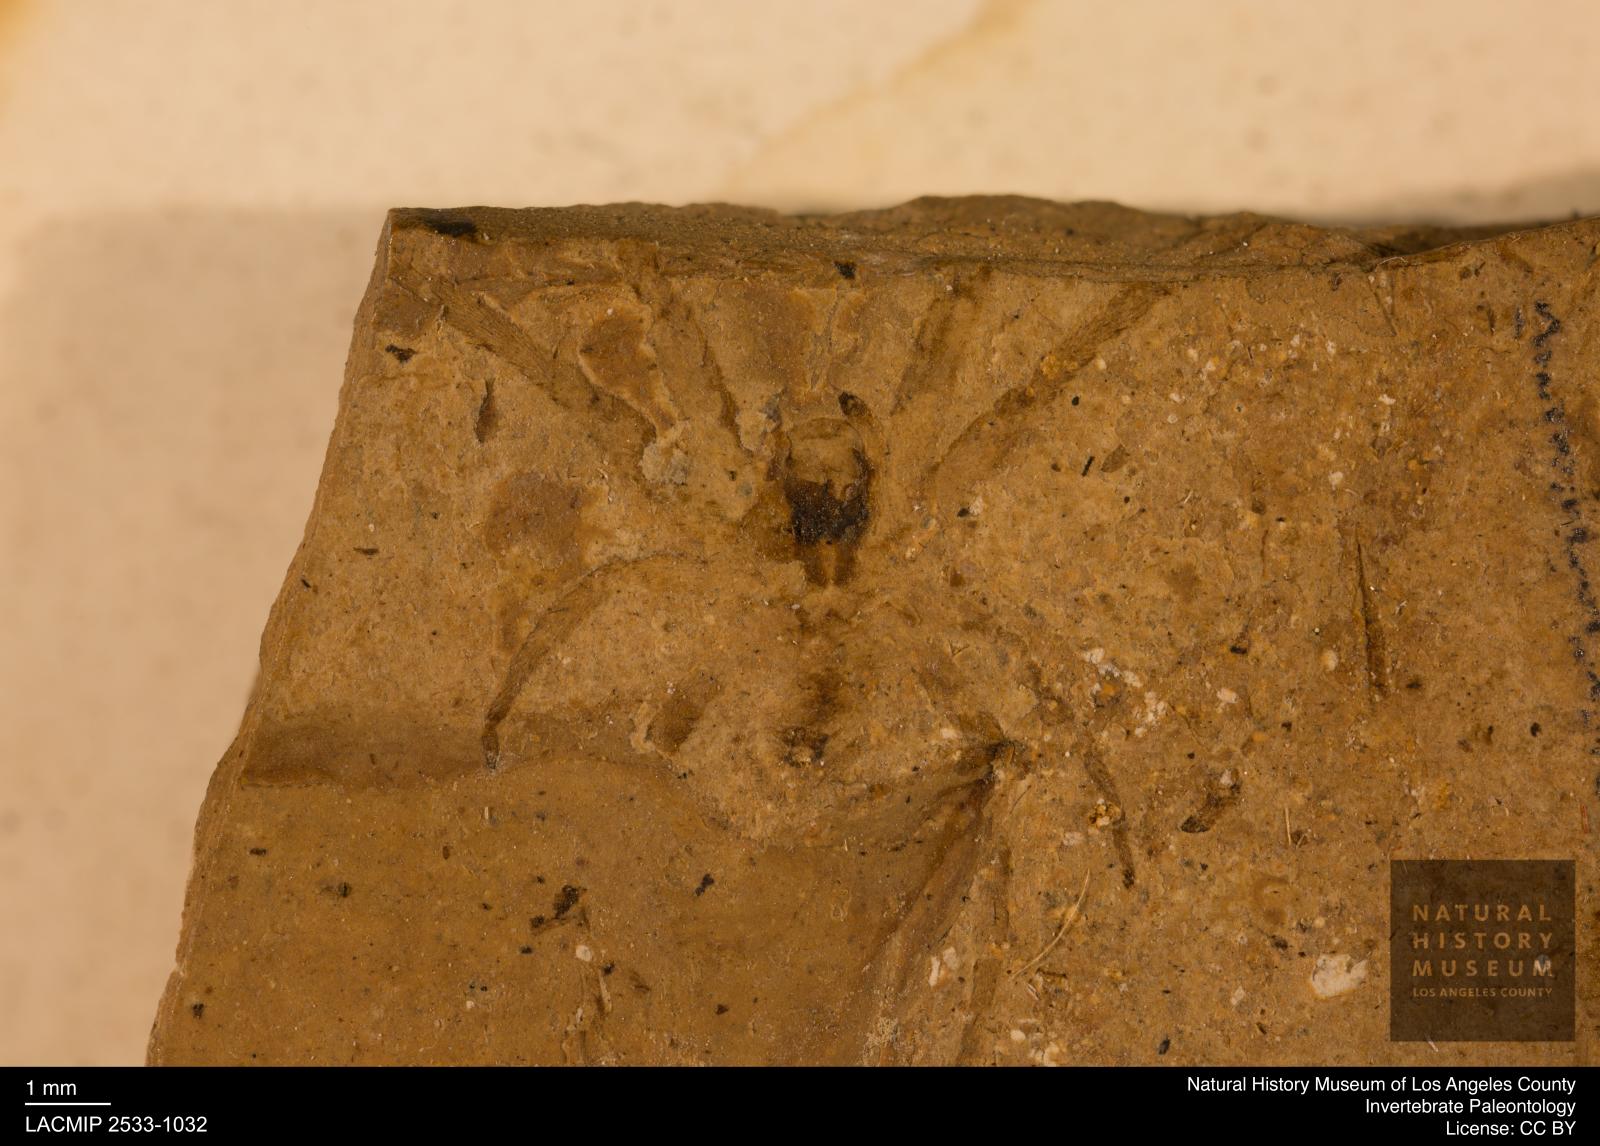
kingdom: Animalia
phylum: Arthropoda
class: Arachnida
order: Araneae
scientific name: Araneae
